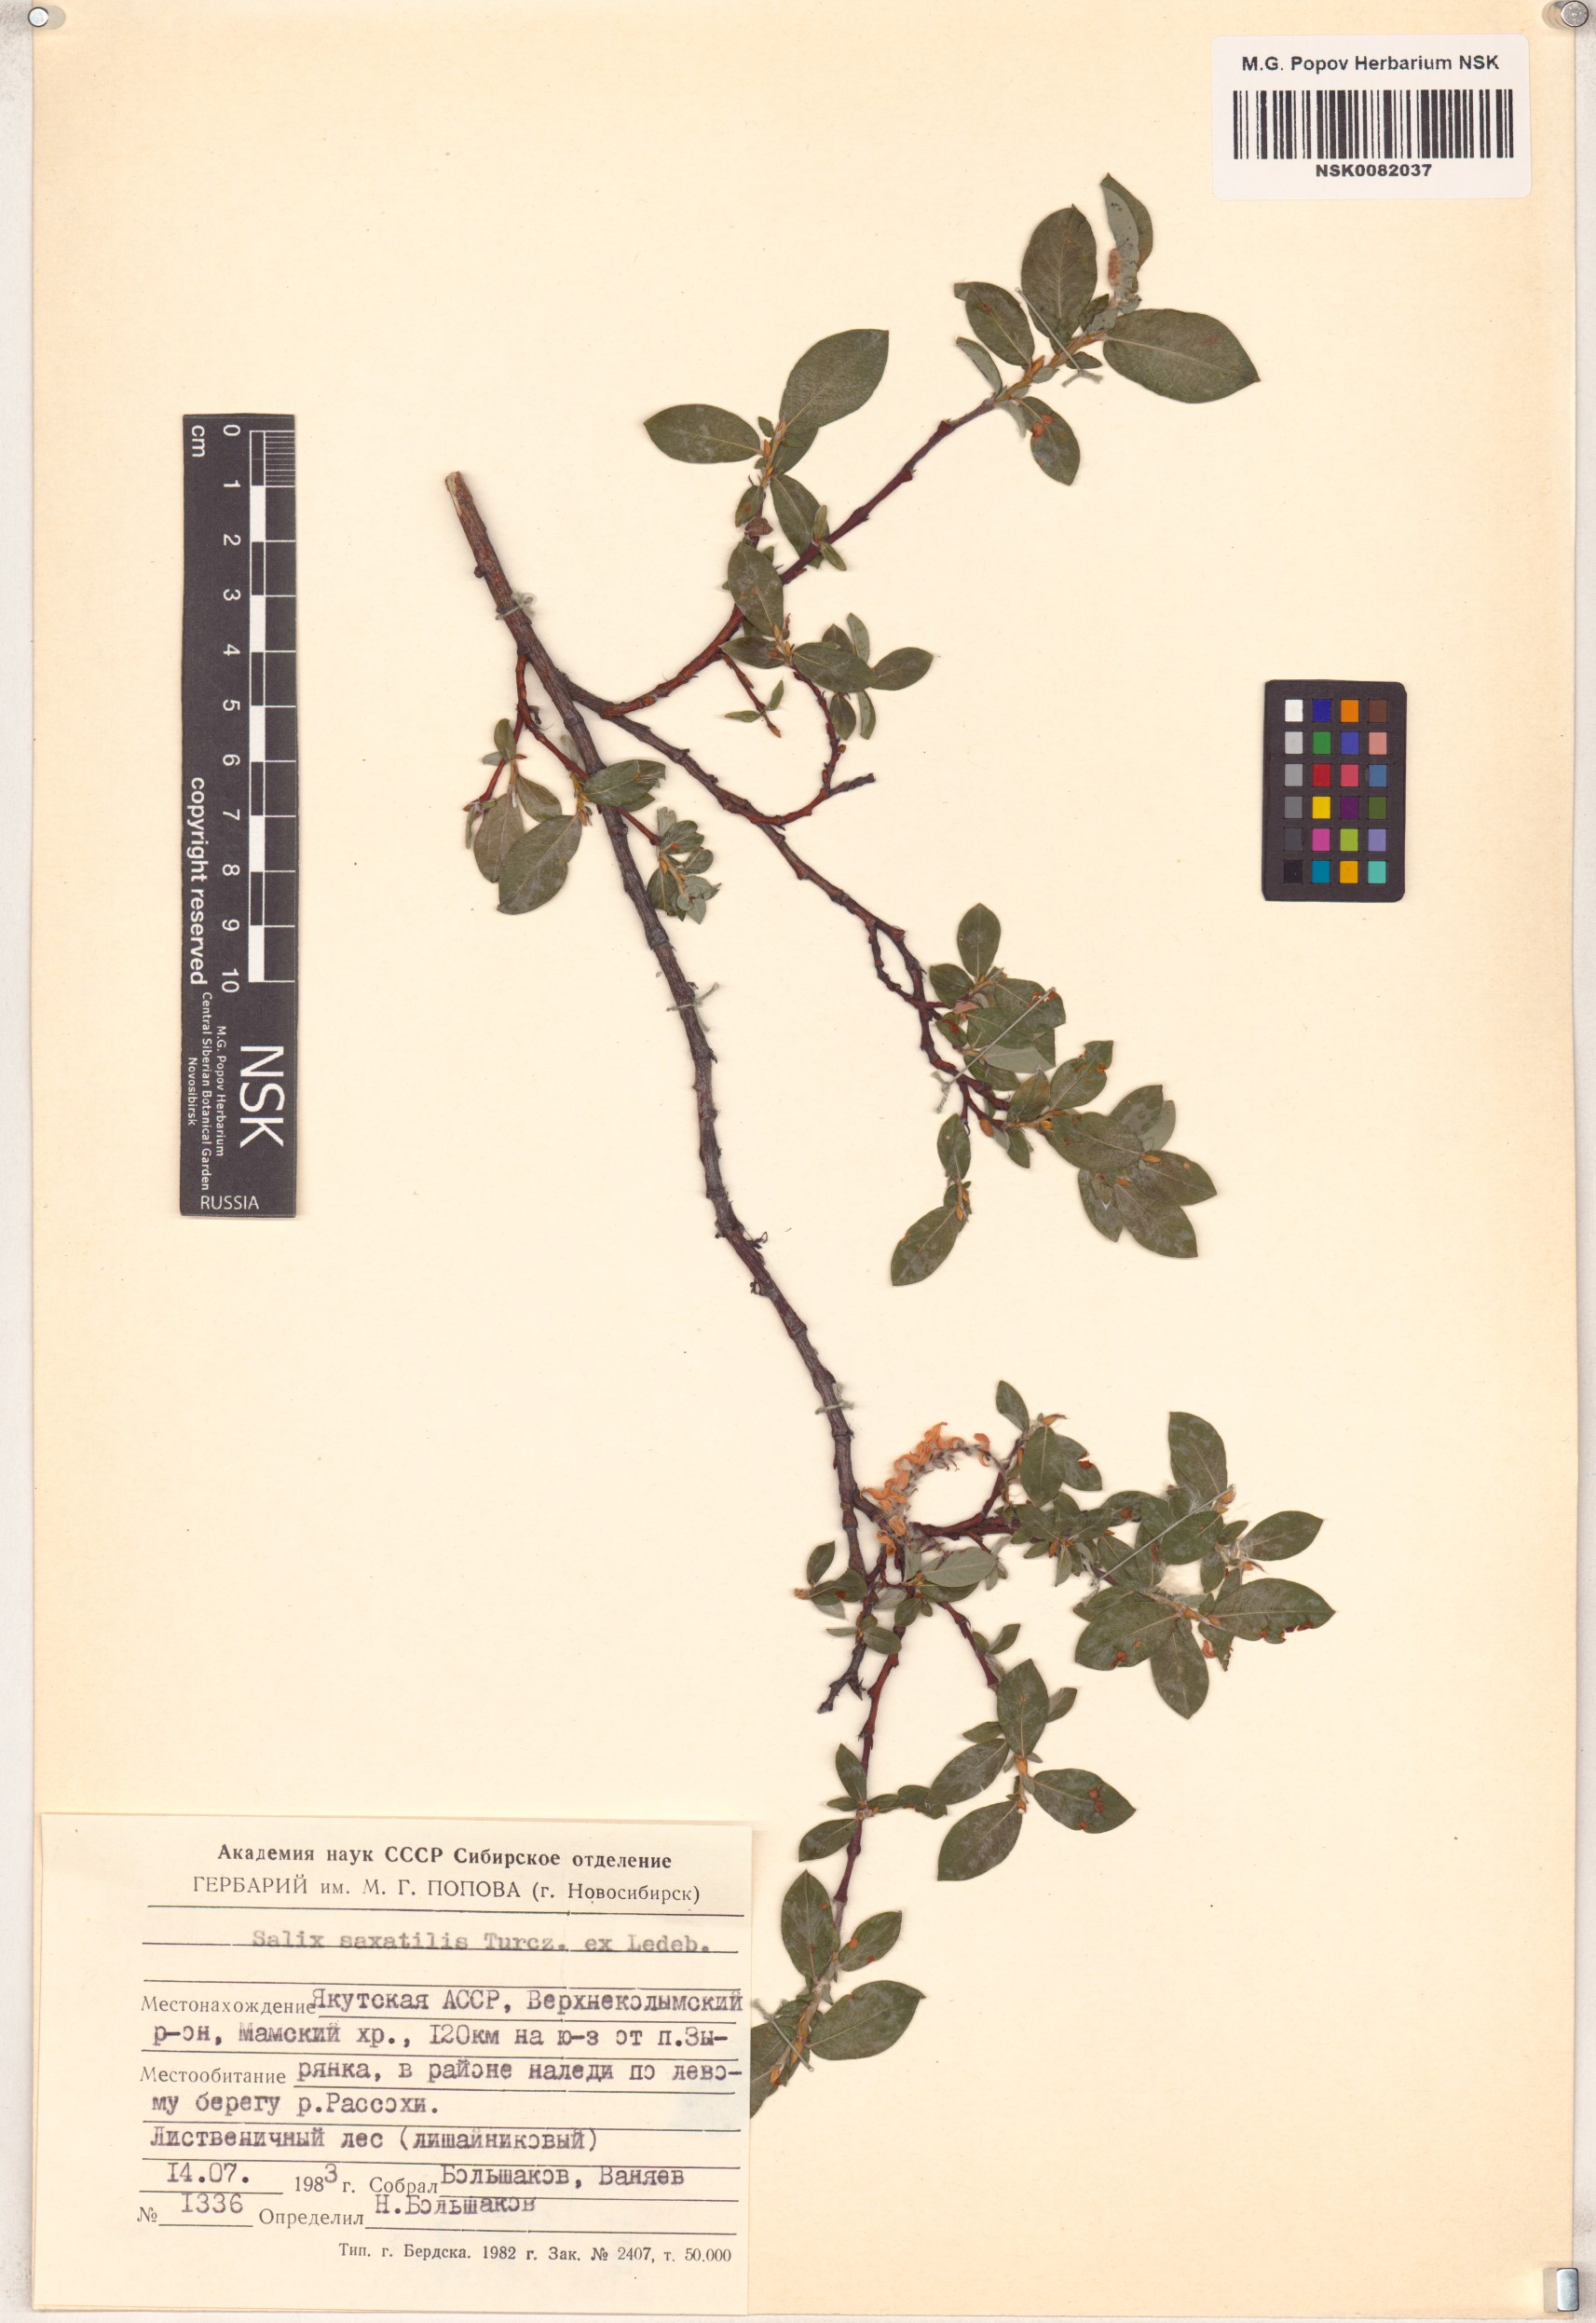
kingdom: Plantae
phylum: Tracheophyta
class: Magnoliopsida
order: Malpighiales
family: Salicaceae
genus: Salix
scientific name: Salix saxatilis
